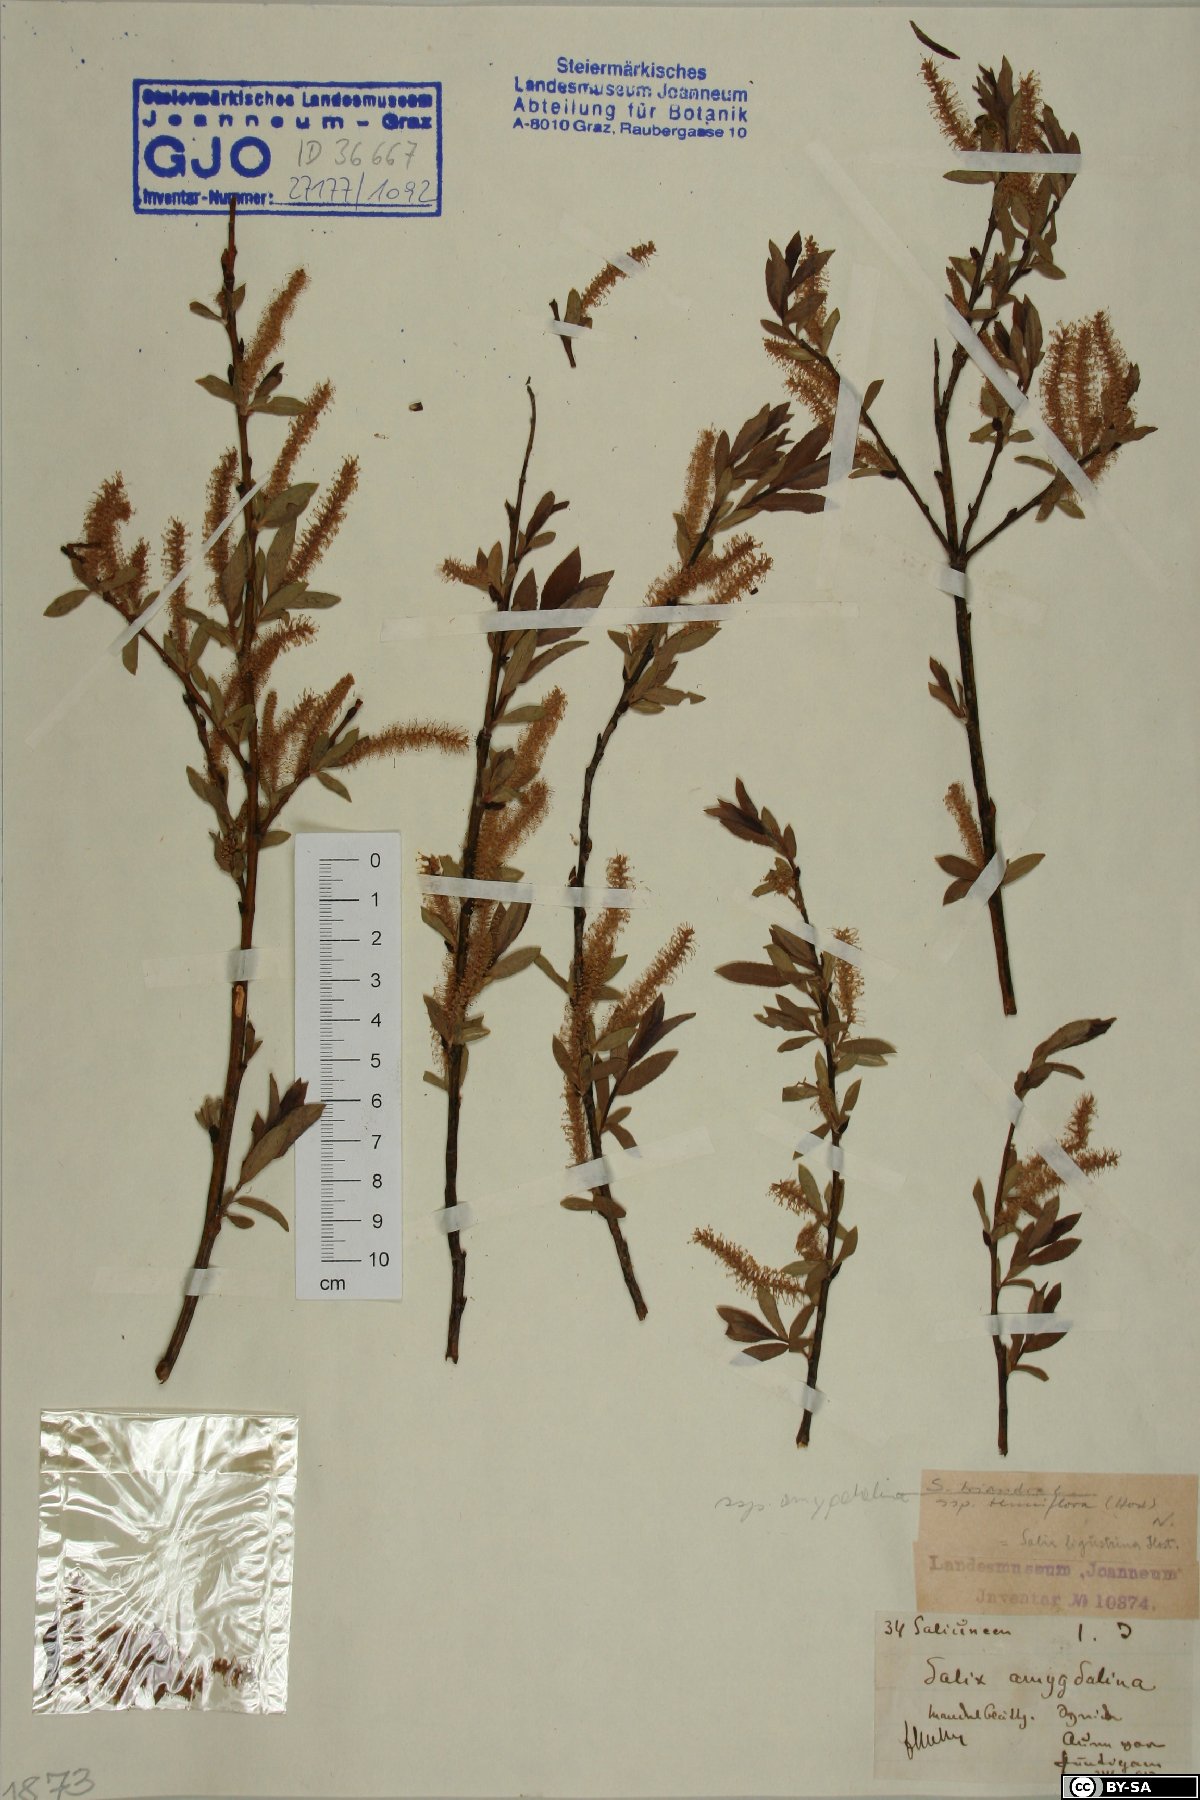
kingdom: Plantae
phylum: Tracheophyta
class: Magnoliopsida
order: Malpighiales
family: Salicaceae
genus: Salix
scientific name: Salix triandra
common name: Almond willow
